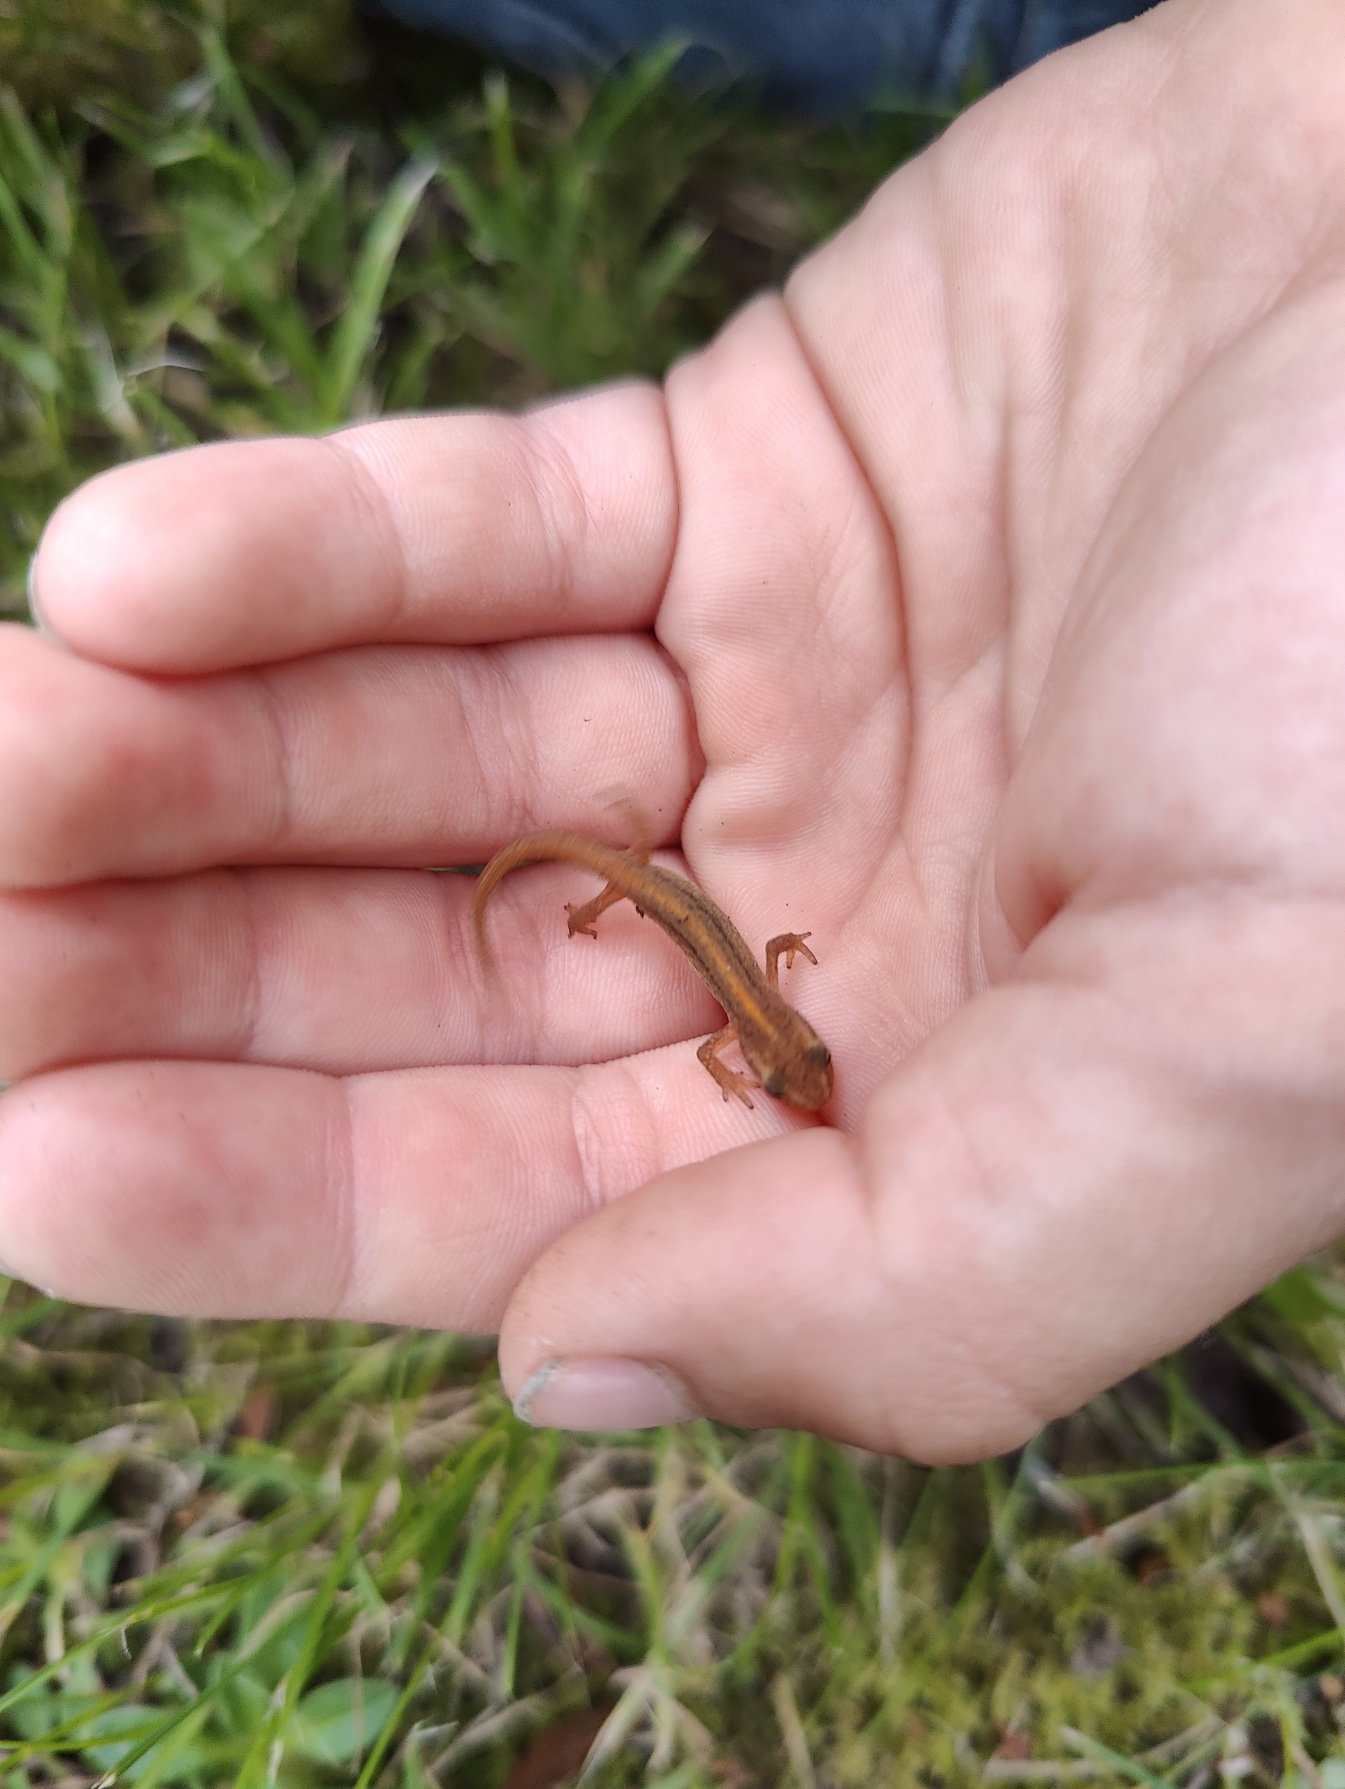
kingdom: Animalia
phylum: Chordata
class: Amphibia
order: Caudata
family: Salamandridae
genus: Lissotriton
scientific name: Lissotriton vulgaris
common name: Lille vandsalamander
